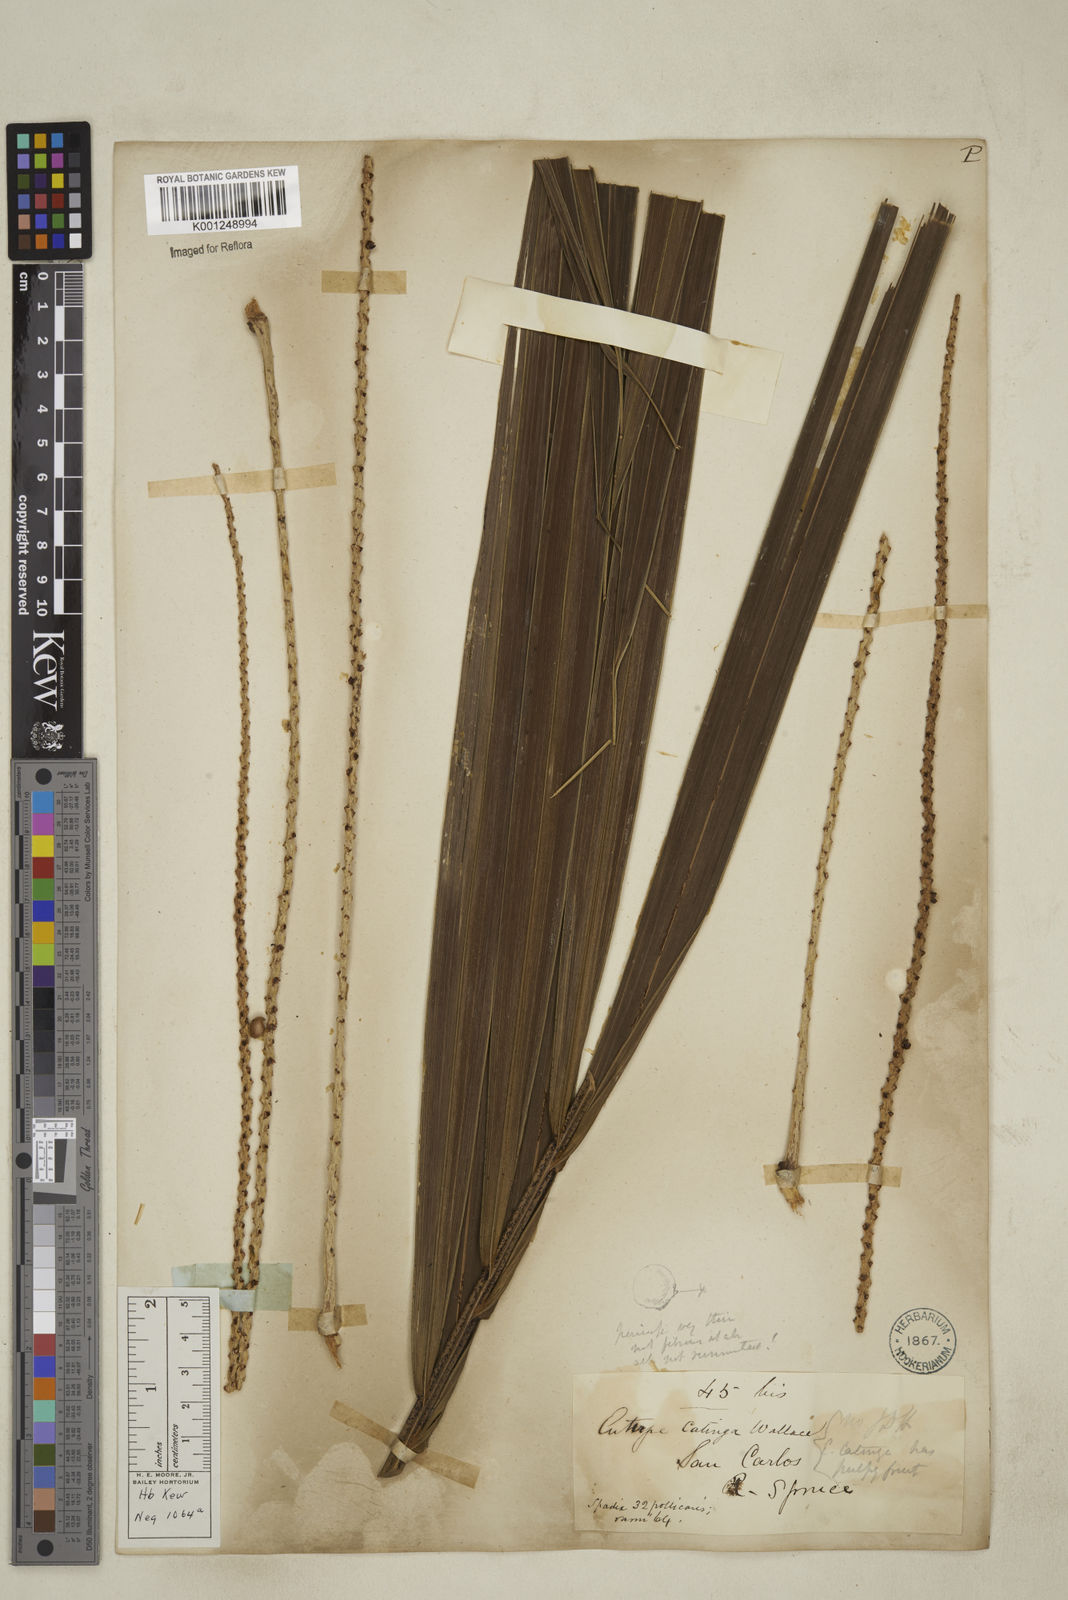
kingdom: Plantae
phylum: Tracheophyta
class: Liliopsida
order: Arecales
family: Arecaceae
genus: Euterpe
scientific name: Euterpe catinga
